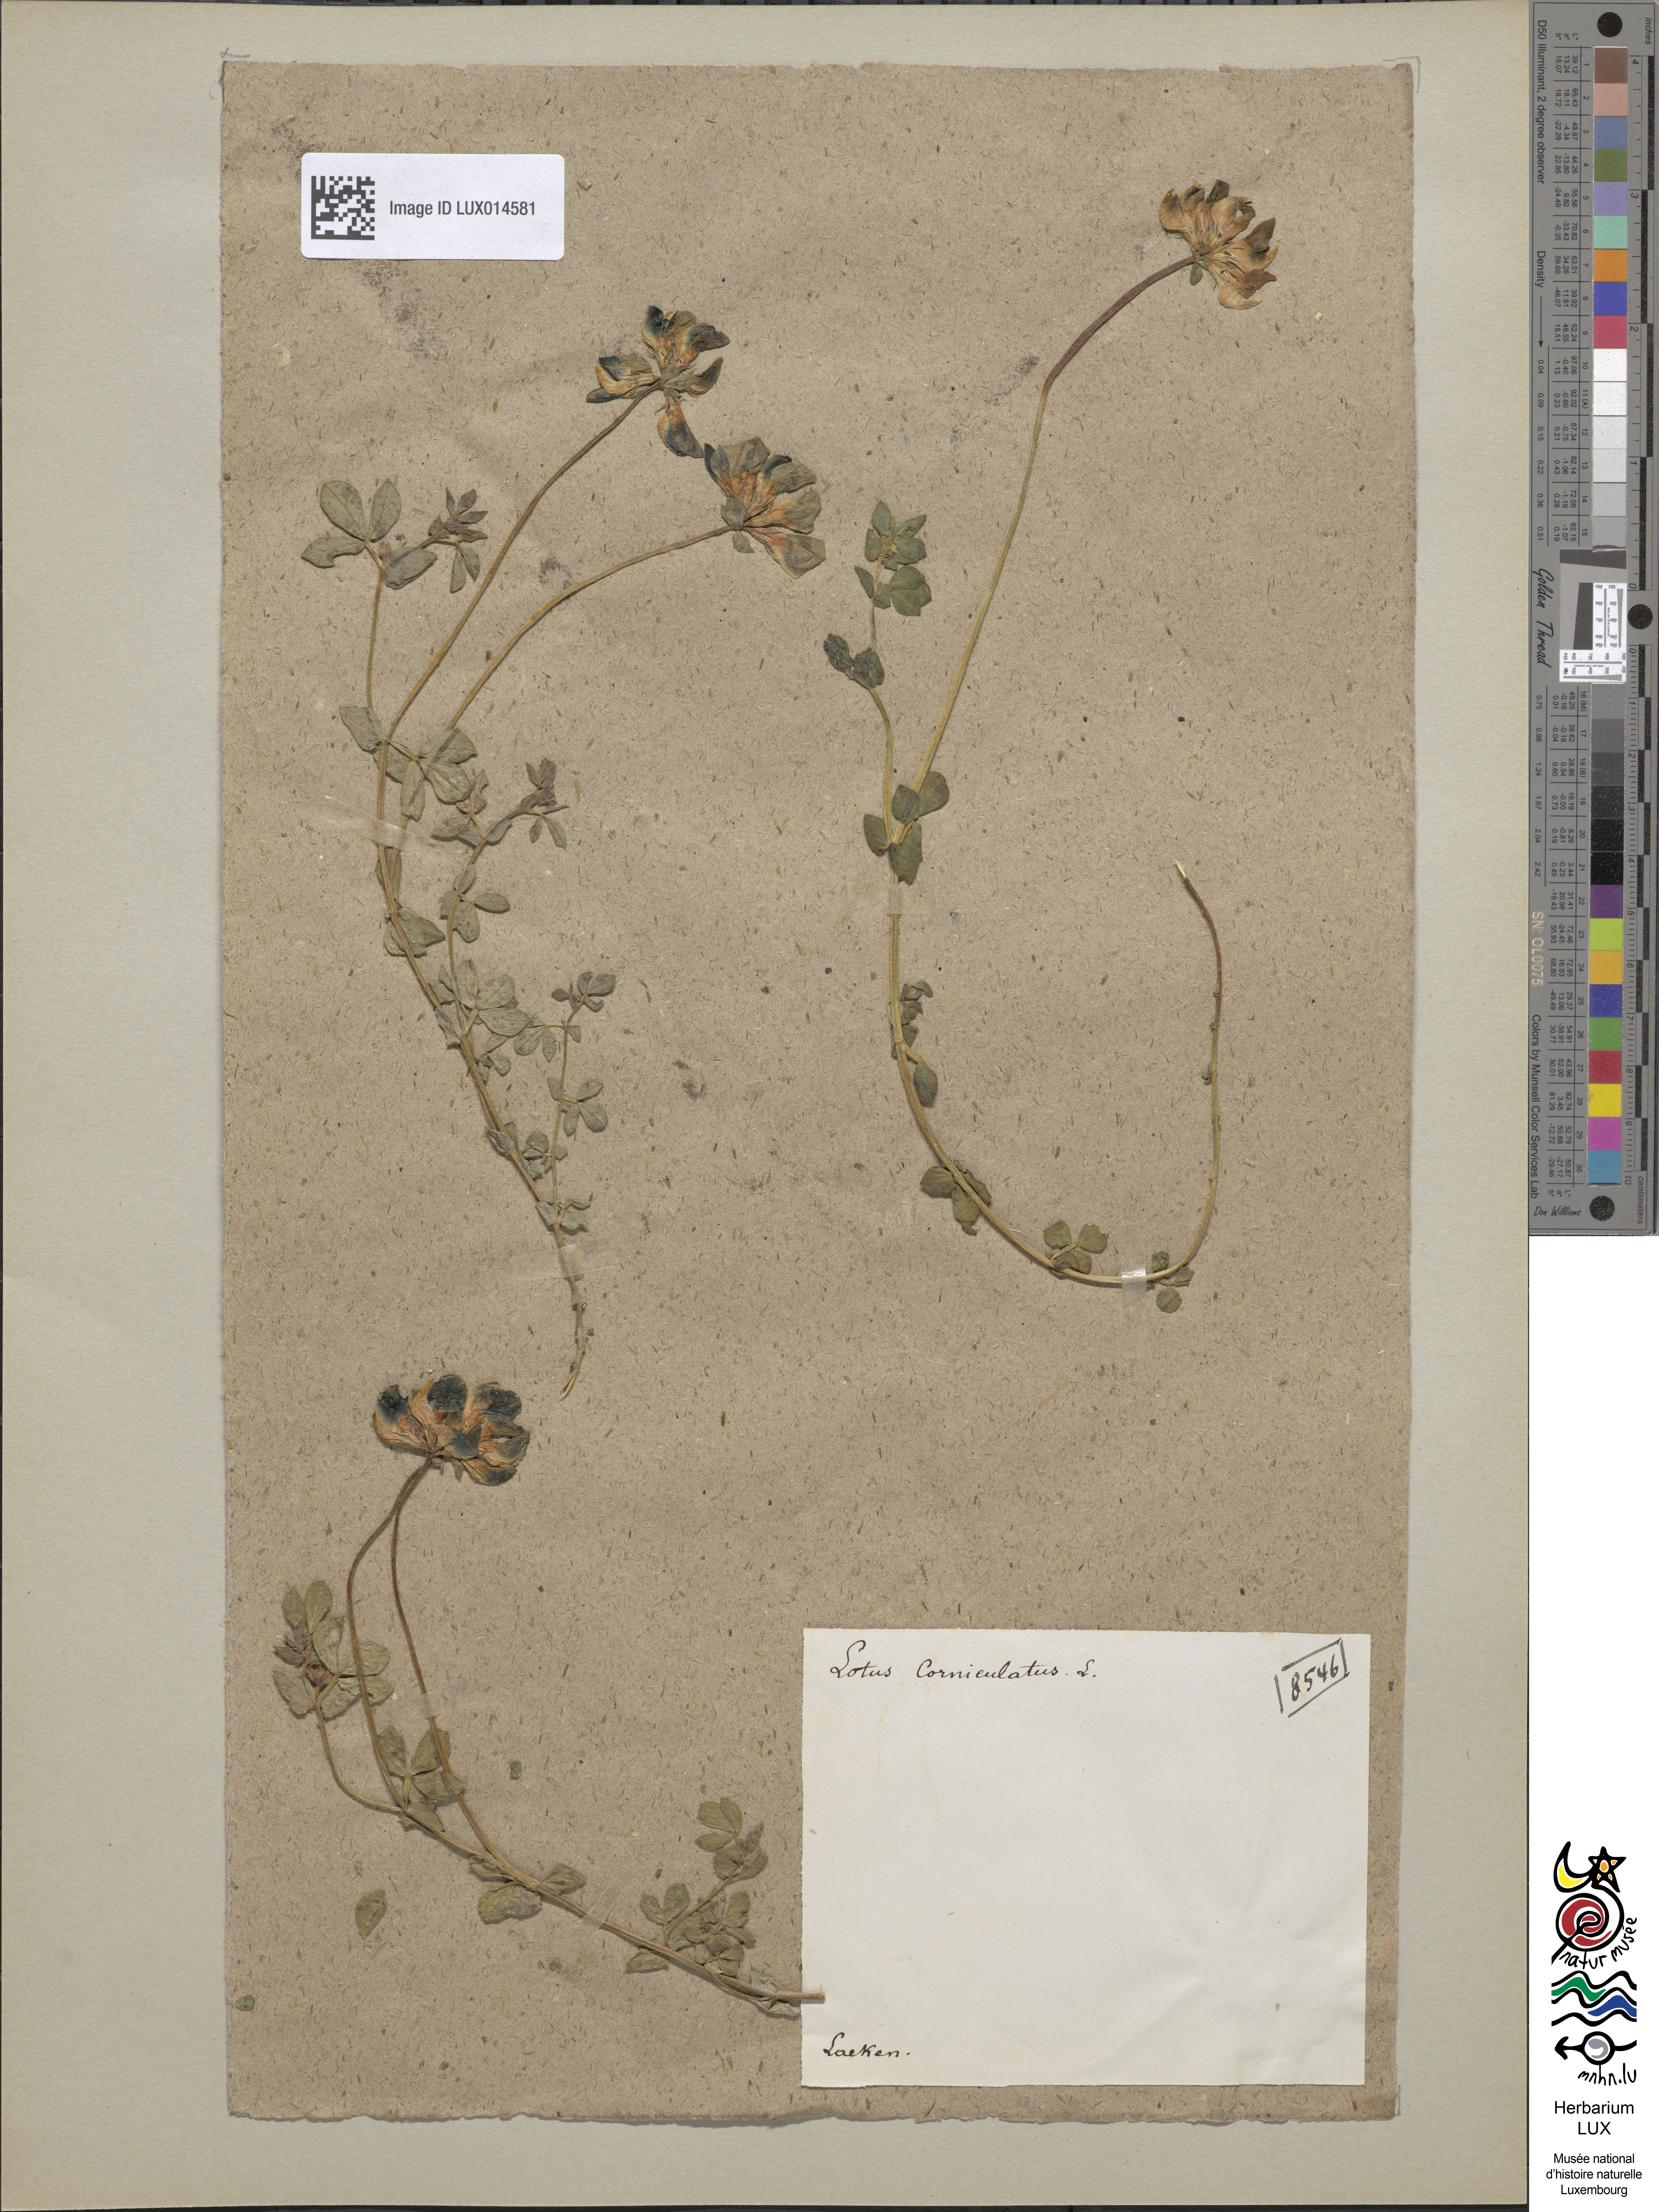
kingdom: Plantae
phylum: Tracheophyta
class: Magnoliopsida
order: Fabales
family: Fabaceae
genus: Lotus
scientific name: Lotus corniculatus
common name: Common bird's-foot-trefoil
